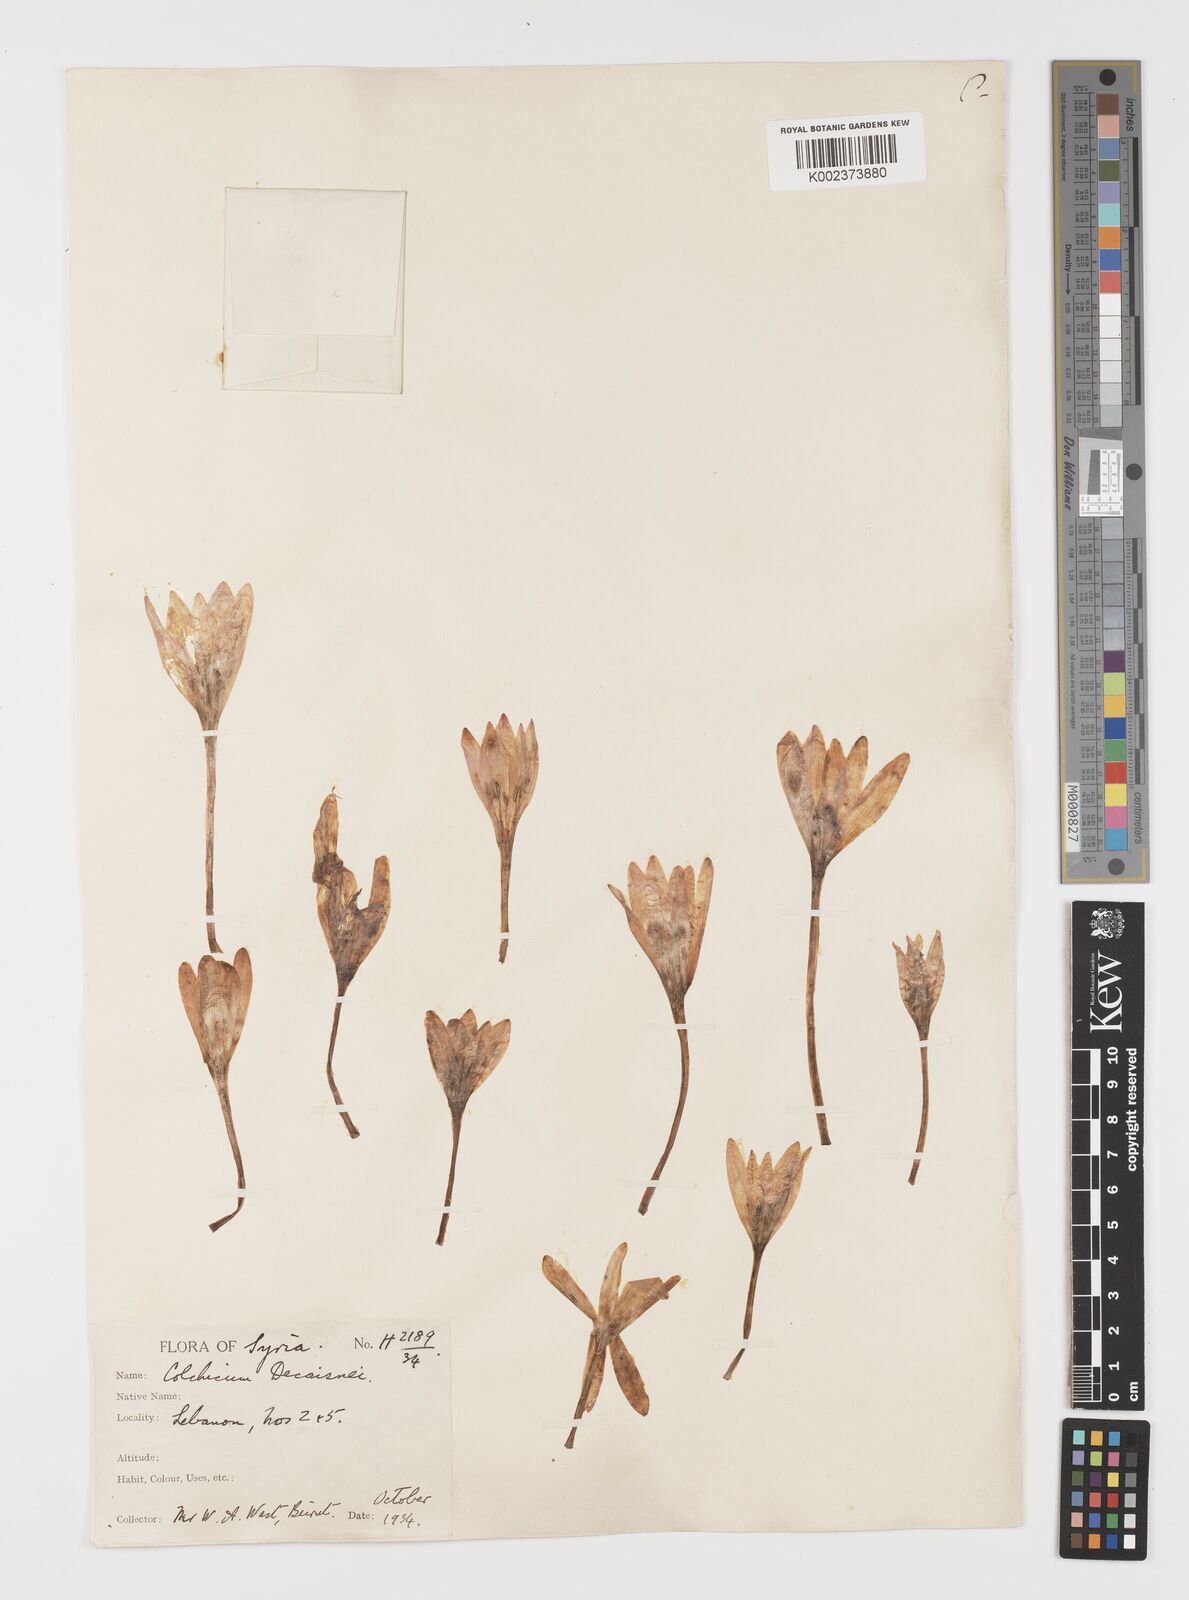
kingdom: Plantae
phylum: Tracheophyta
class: Liliopsida
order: Liliales
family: Colchicaceae
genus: Colchicum
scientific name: Colchicum decaisnei
